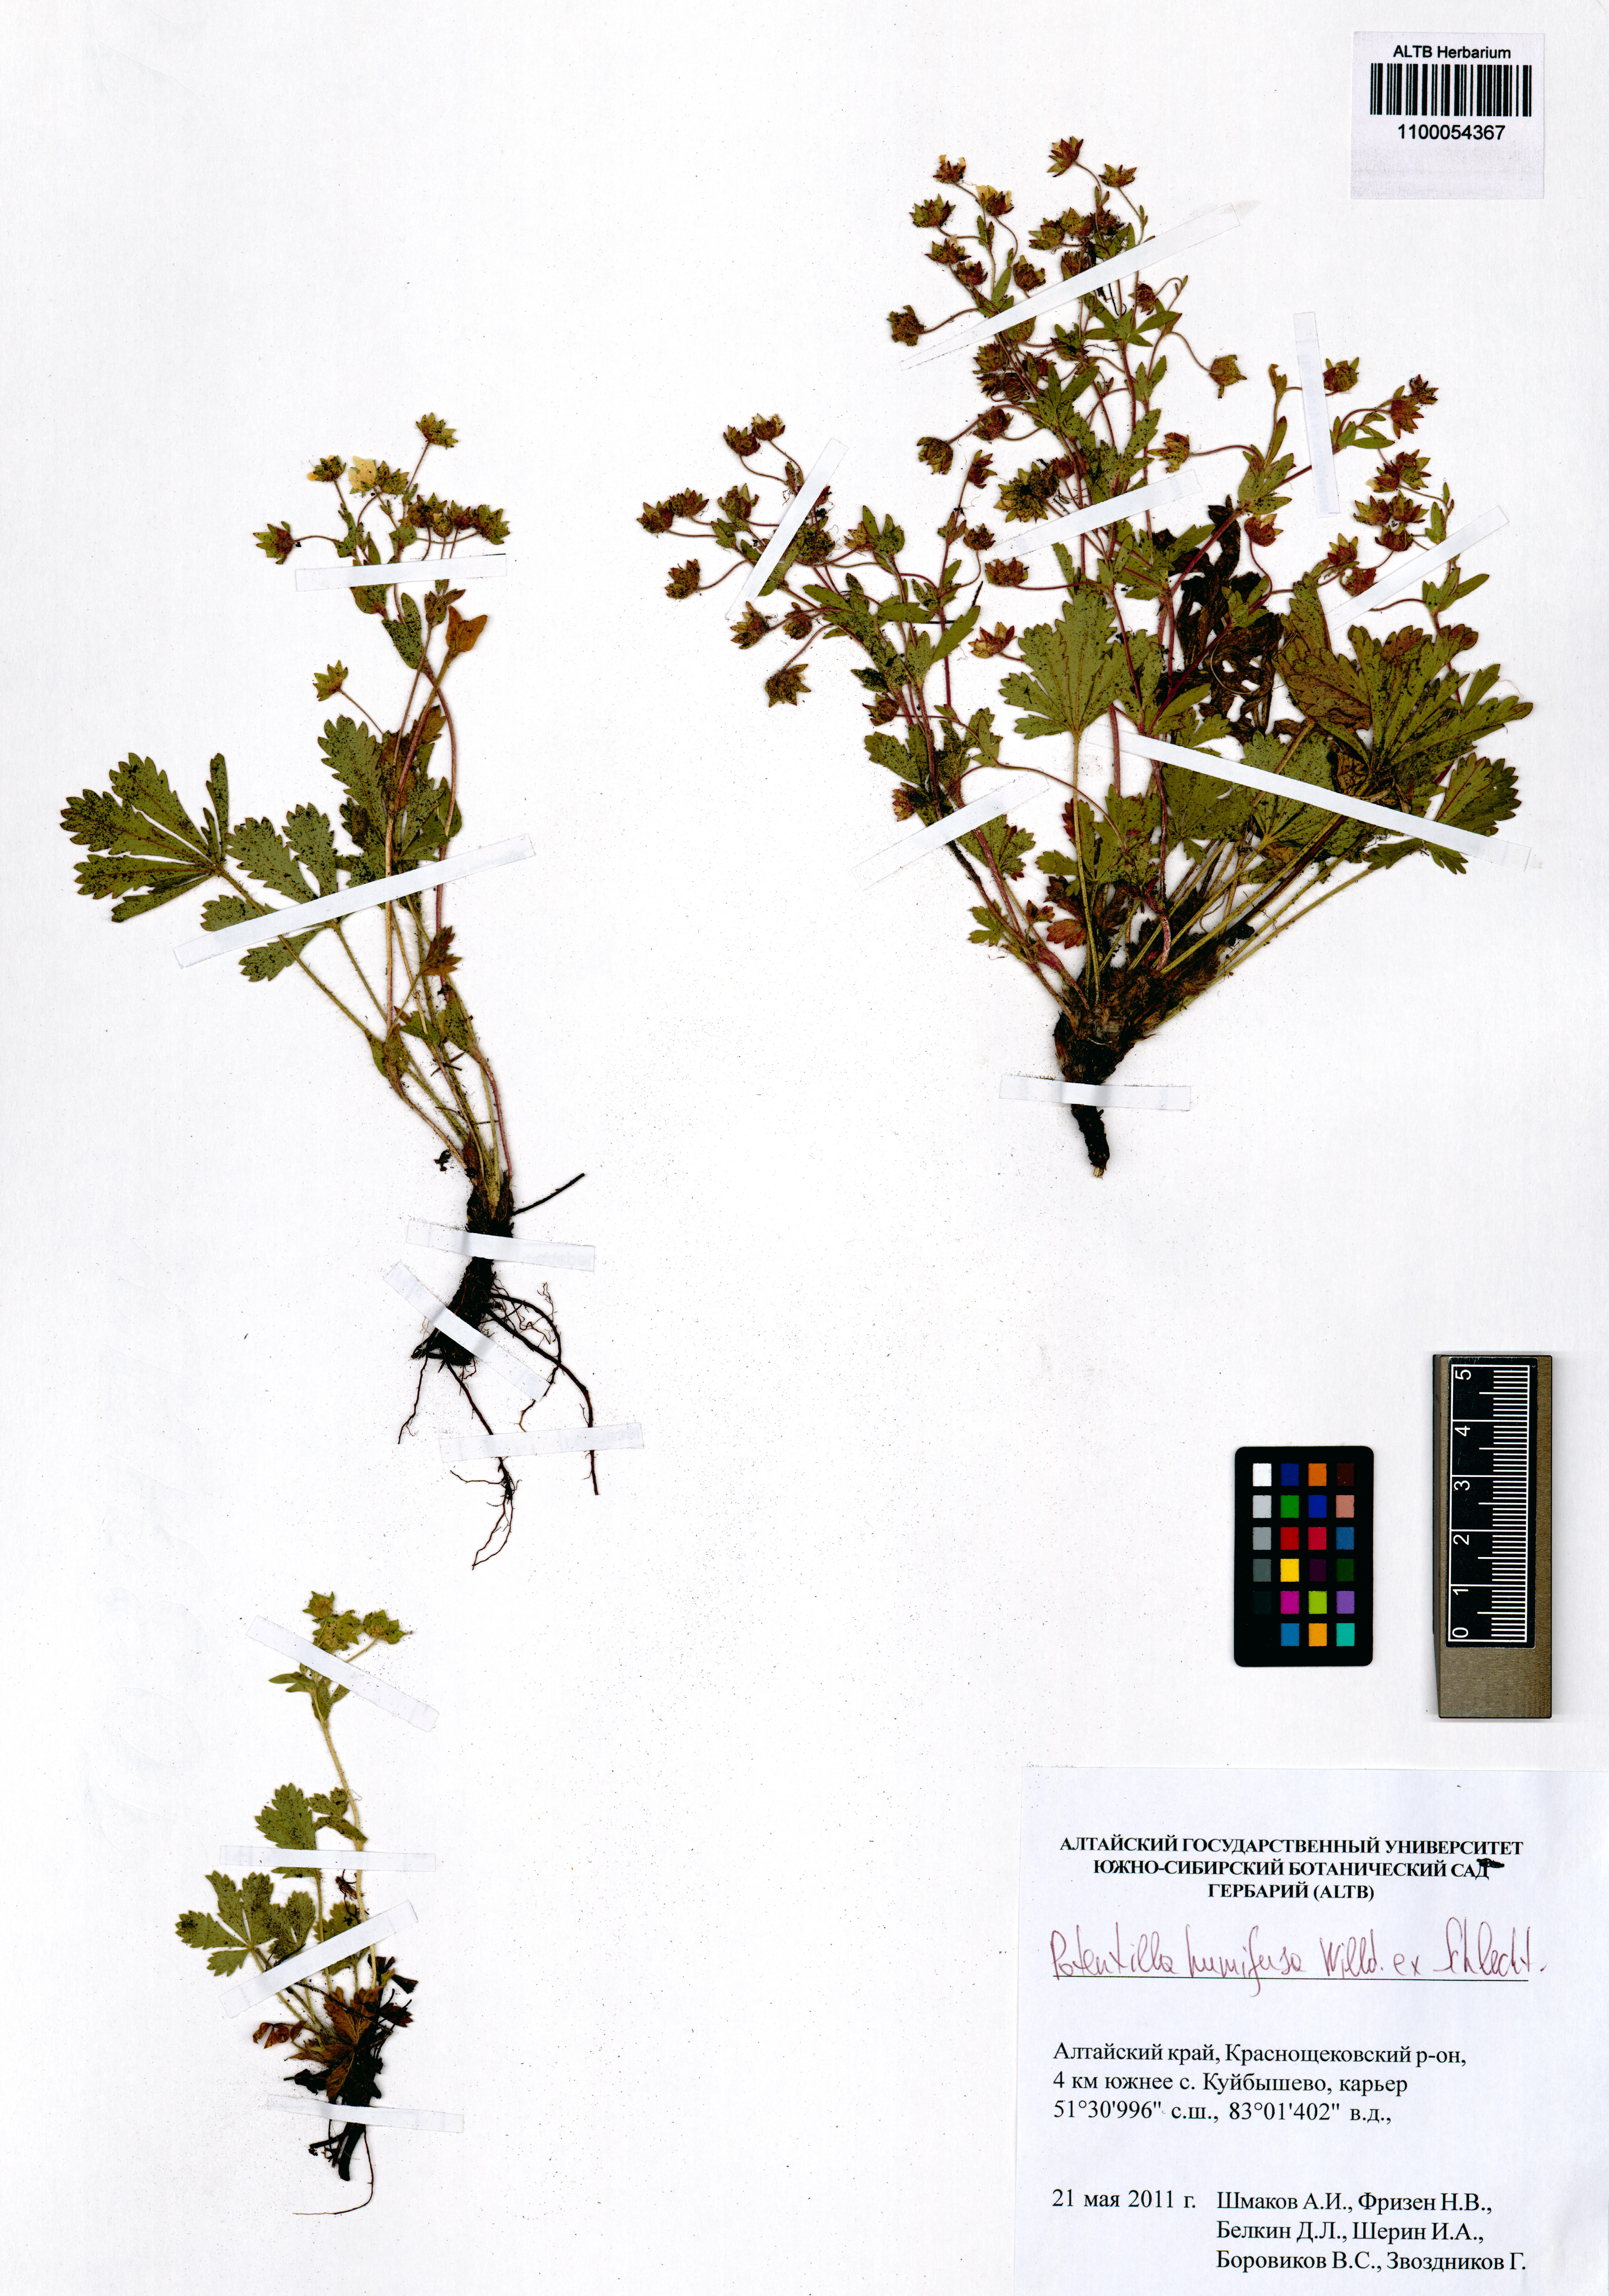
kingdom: Plantae
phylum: Tracheophyta
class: Magnoliopsida
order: Rosales
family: Rosaceae
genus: Potentilla
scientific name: Potentilla humifusa
